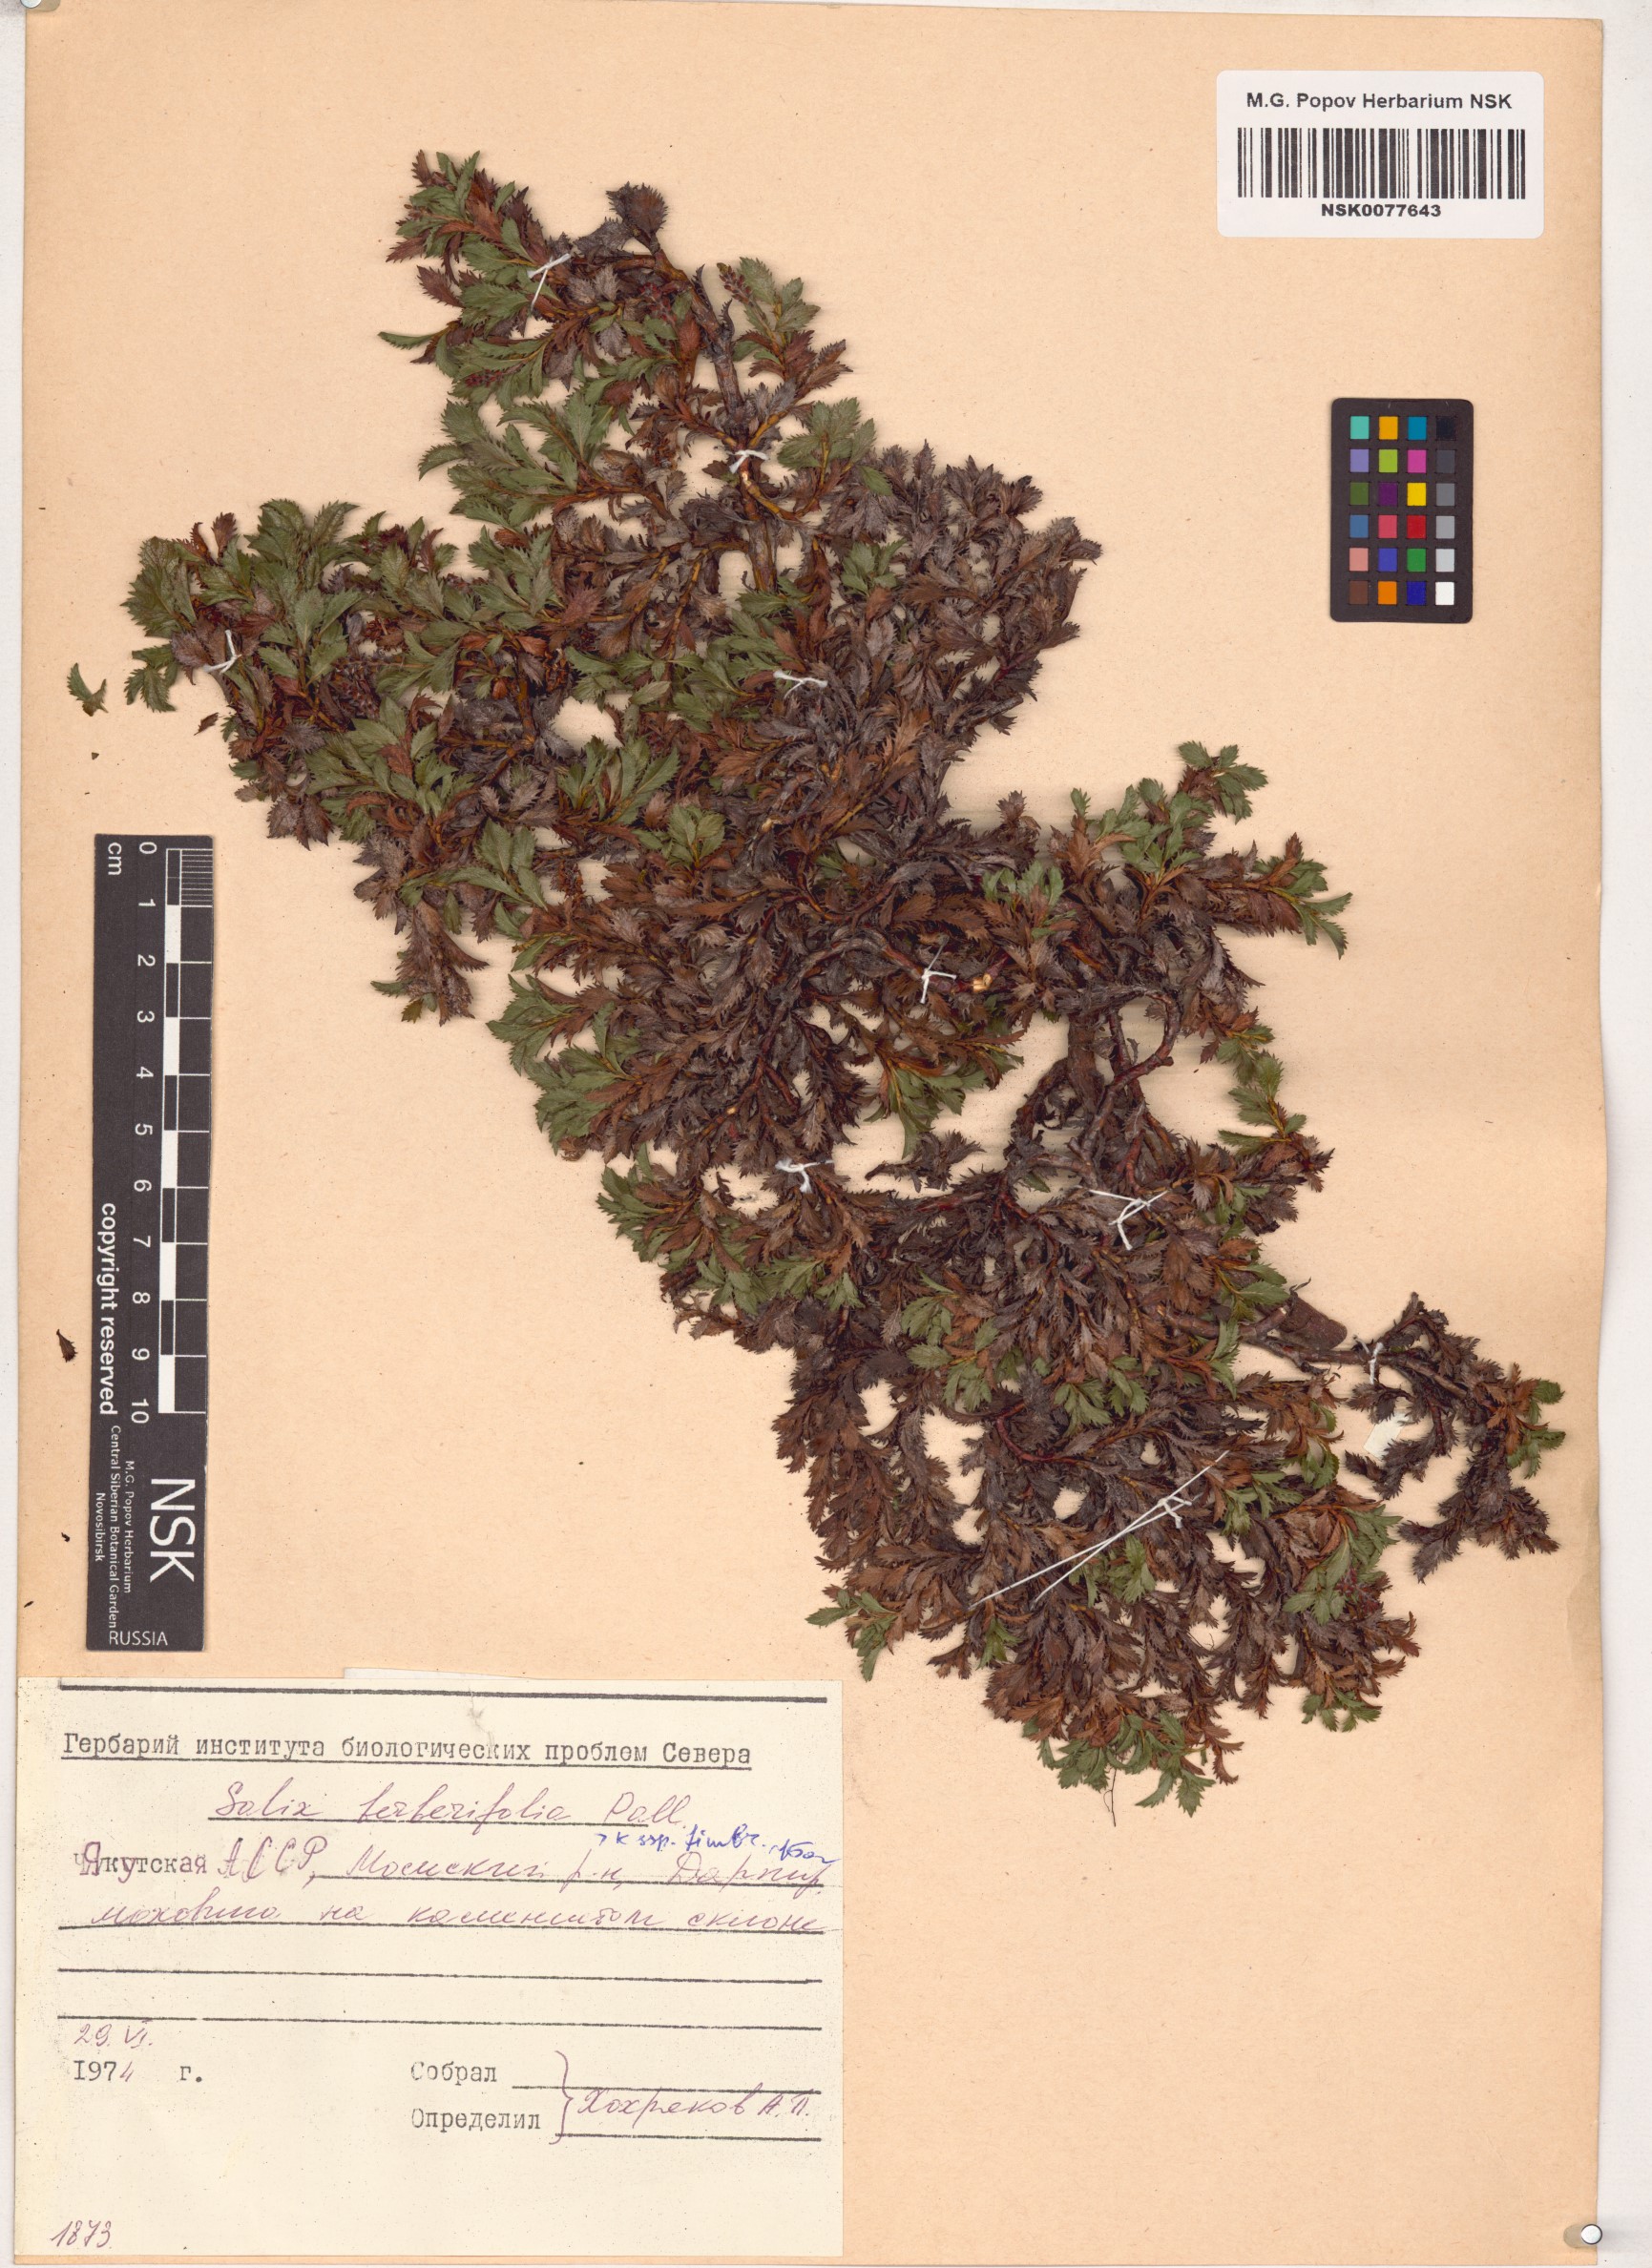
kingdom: Plantae
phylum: Tracheophyta
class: Magnoliopsida
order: Malpighiales
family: Salicaceae
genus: Salix
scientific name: Salix berberifolia
